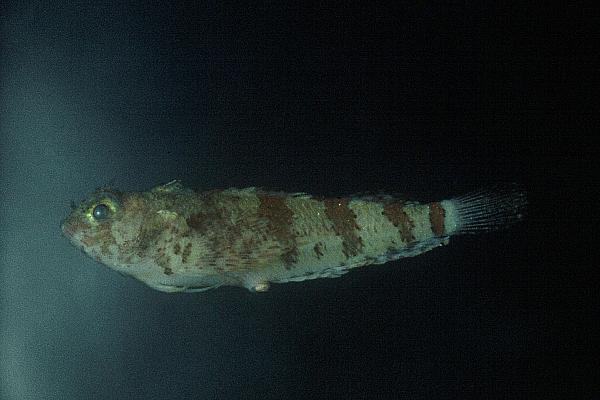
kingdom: Animalia
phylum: Chordata
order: Perciformes
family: Tripterygiidae
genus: Cremnochorites
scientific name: Cremnochorites capensis
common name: Cape triplefin
